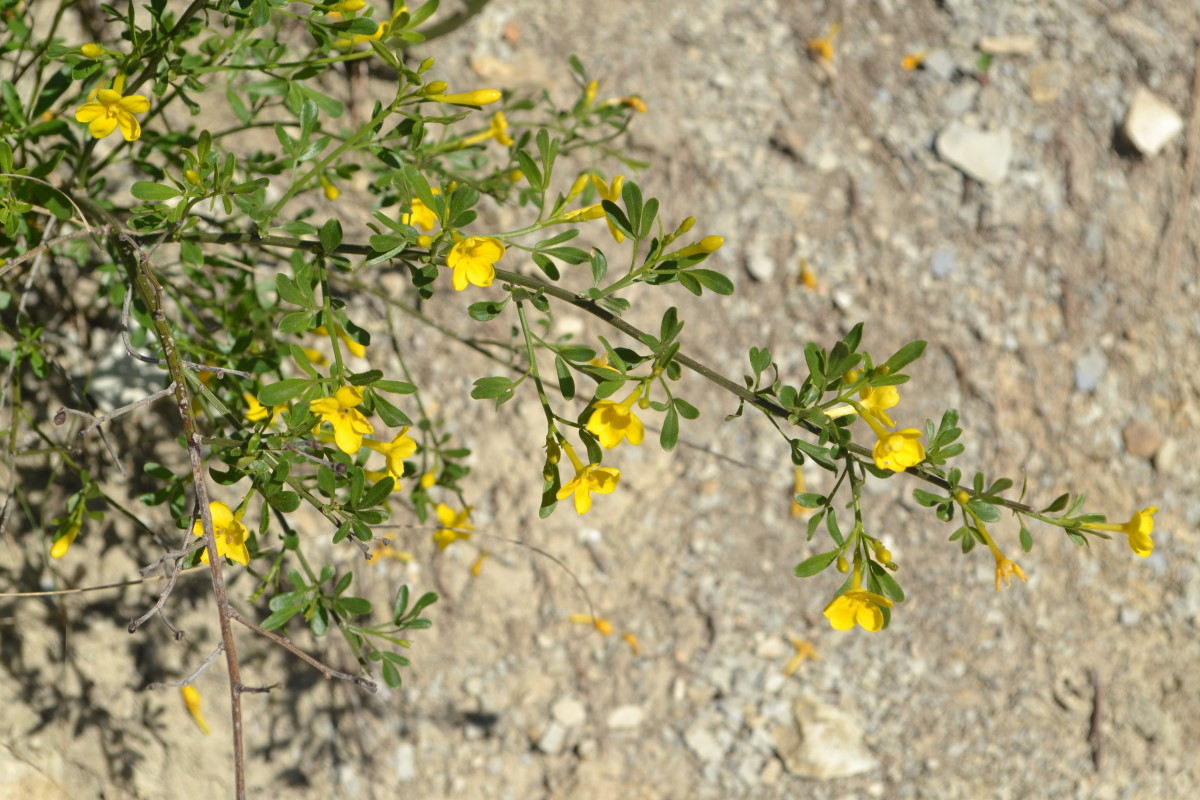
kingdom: Plantae
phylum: Tracheophyta
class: Magnoliopsida
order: Lamiales
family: Oleaceae
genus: Chrysojasminum
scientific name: Chrysojasminum fruticans
